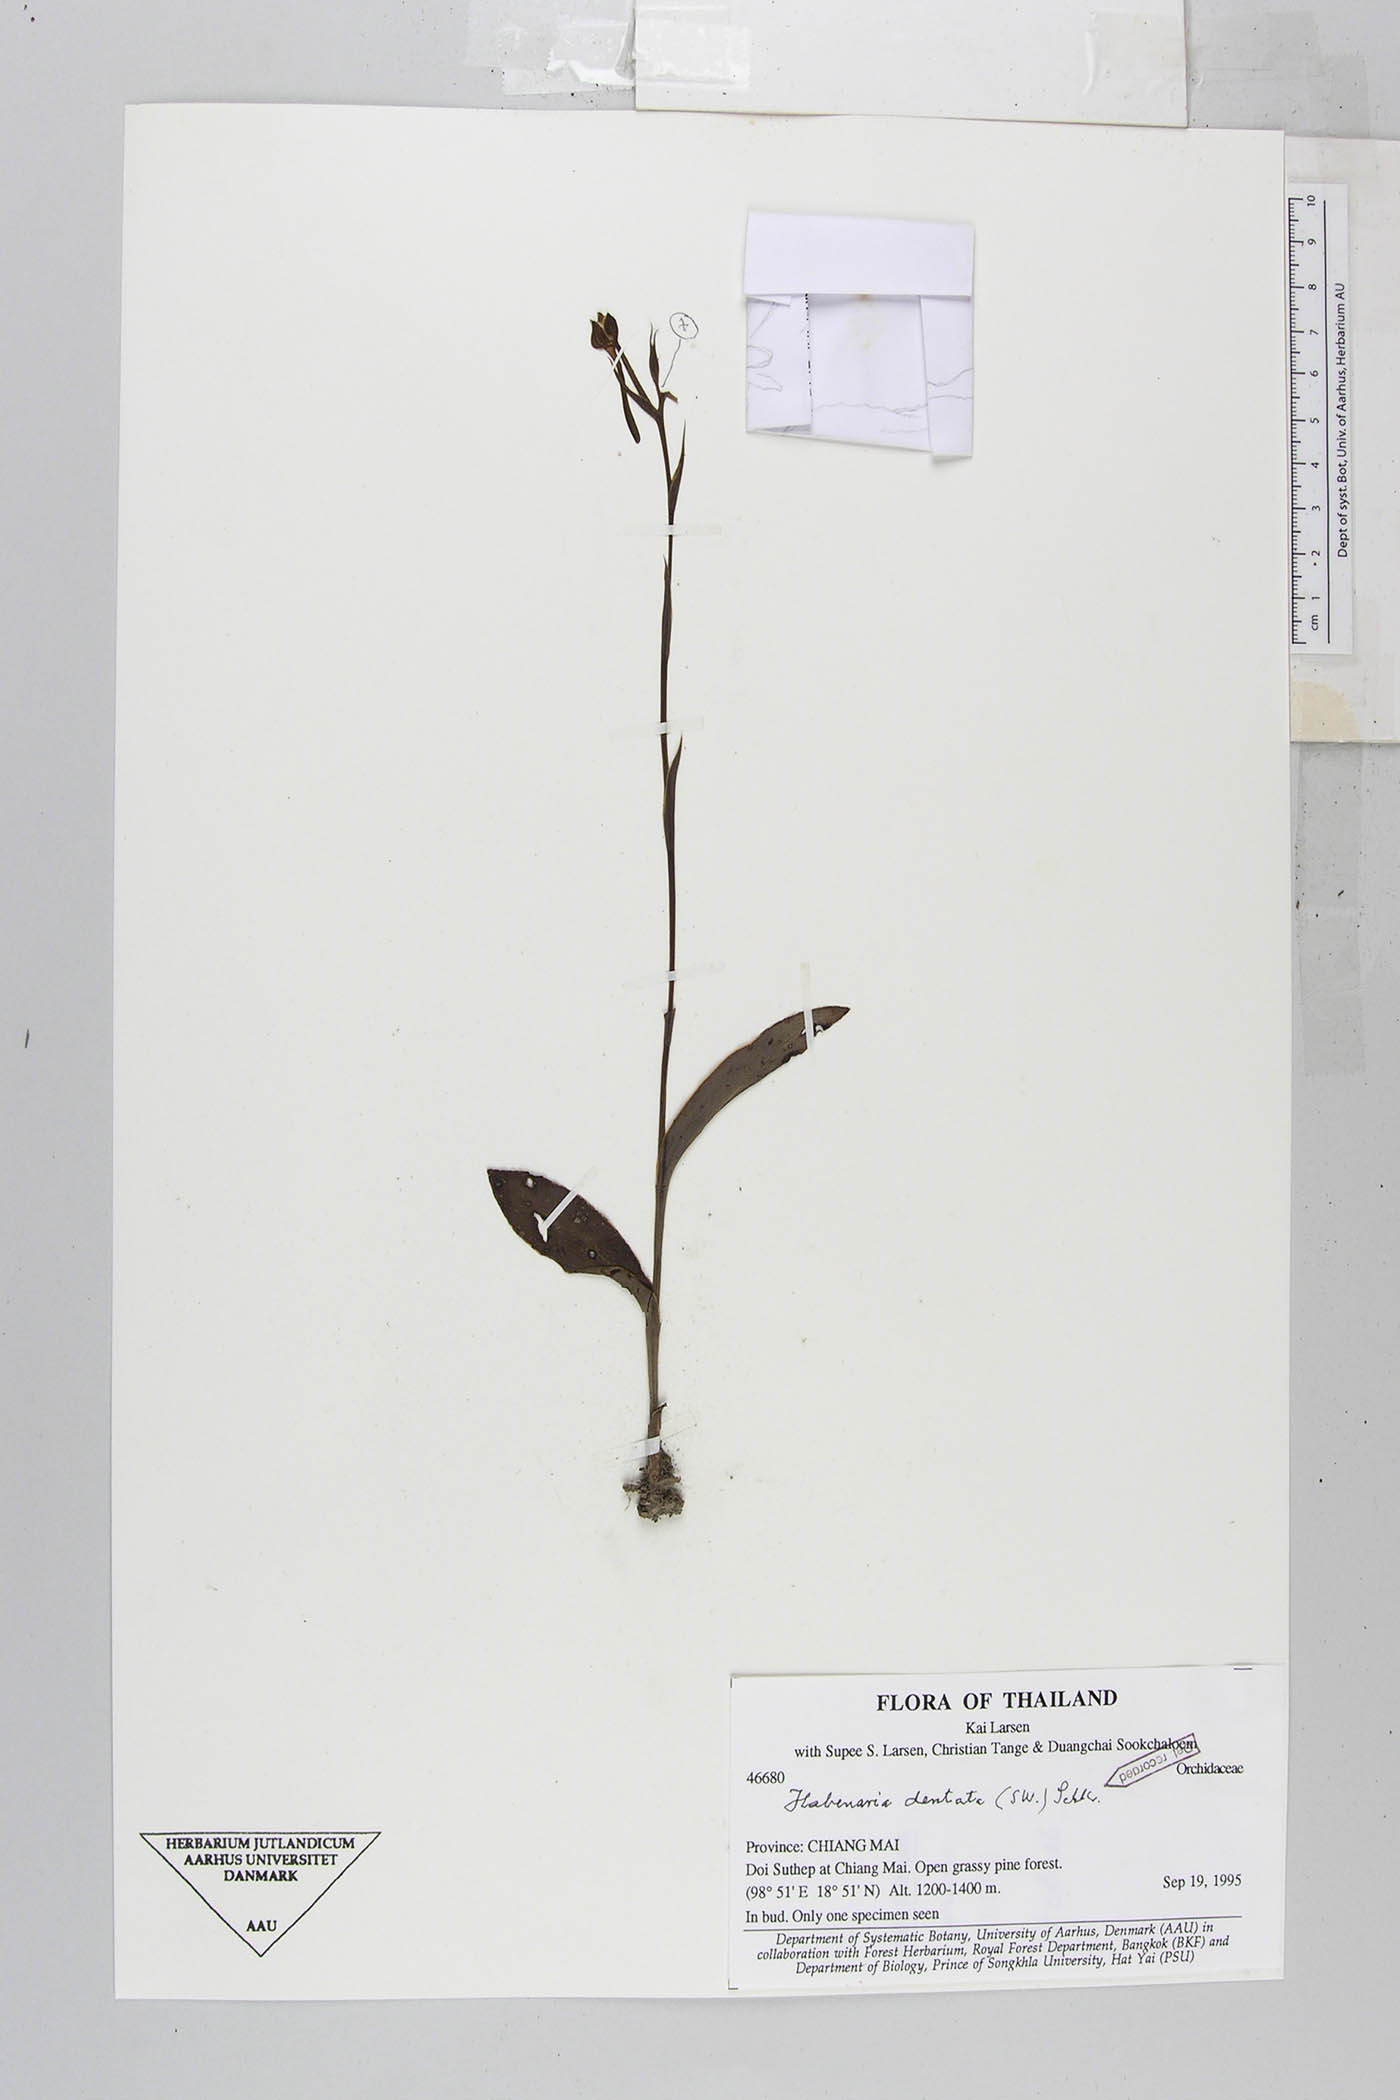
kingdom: Plantae
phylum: Tracheophyta
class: Liliopsida
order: Asparagales
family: Orchidaceae
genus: Habenaria
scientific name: Habenaria dentata
